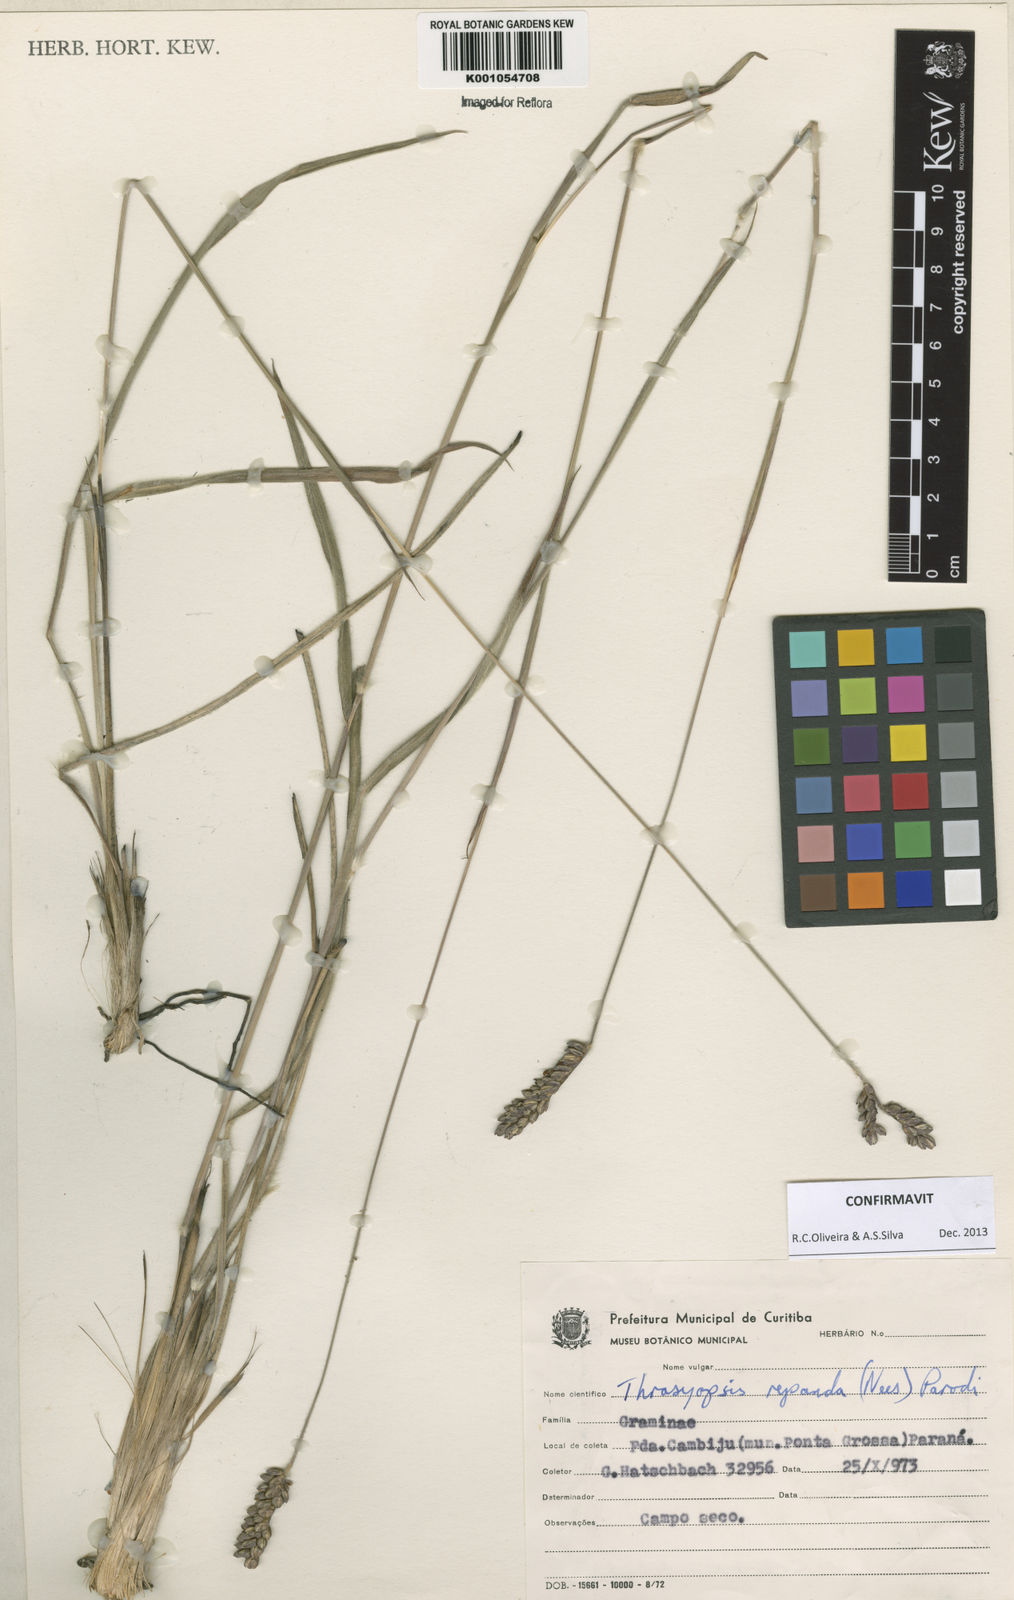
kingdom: Plantae
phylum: Tracheophyta
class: Liliopsida
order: Poales
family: Poaceae
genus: Paspalum
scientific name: Paspalum repandum
